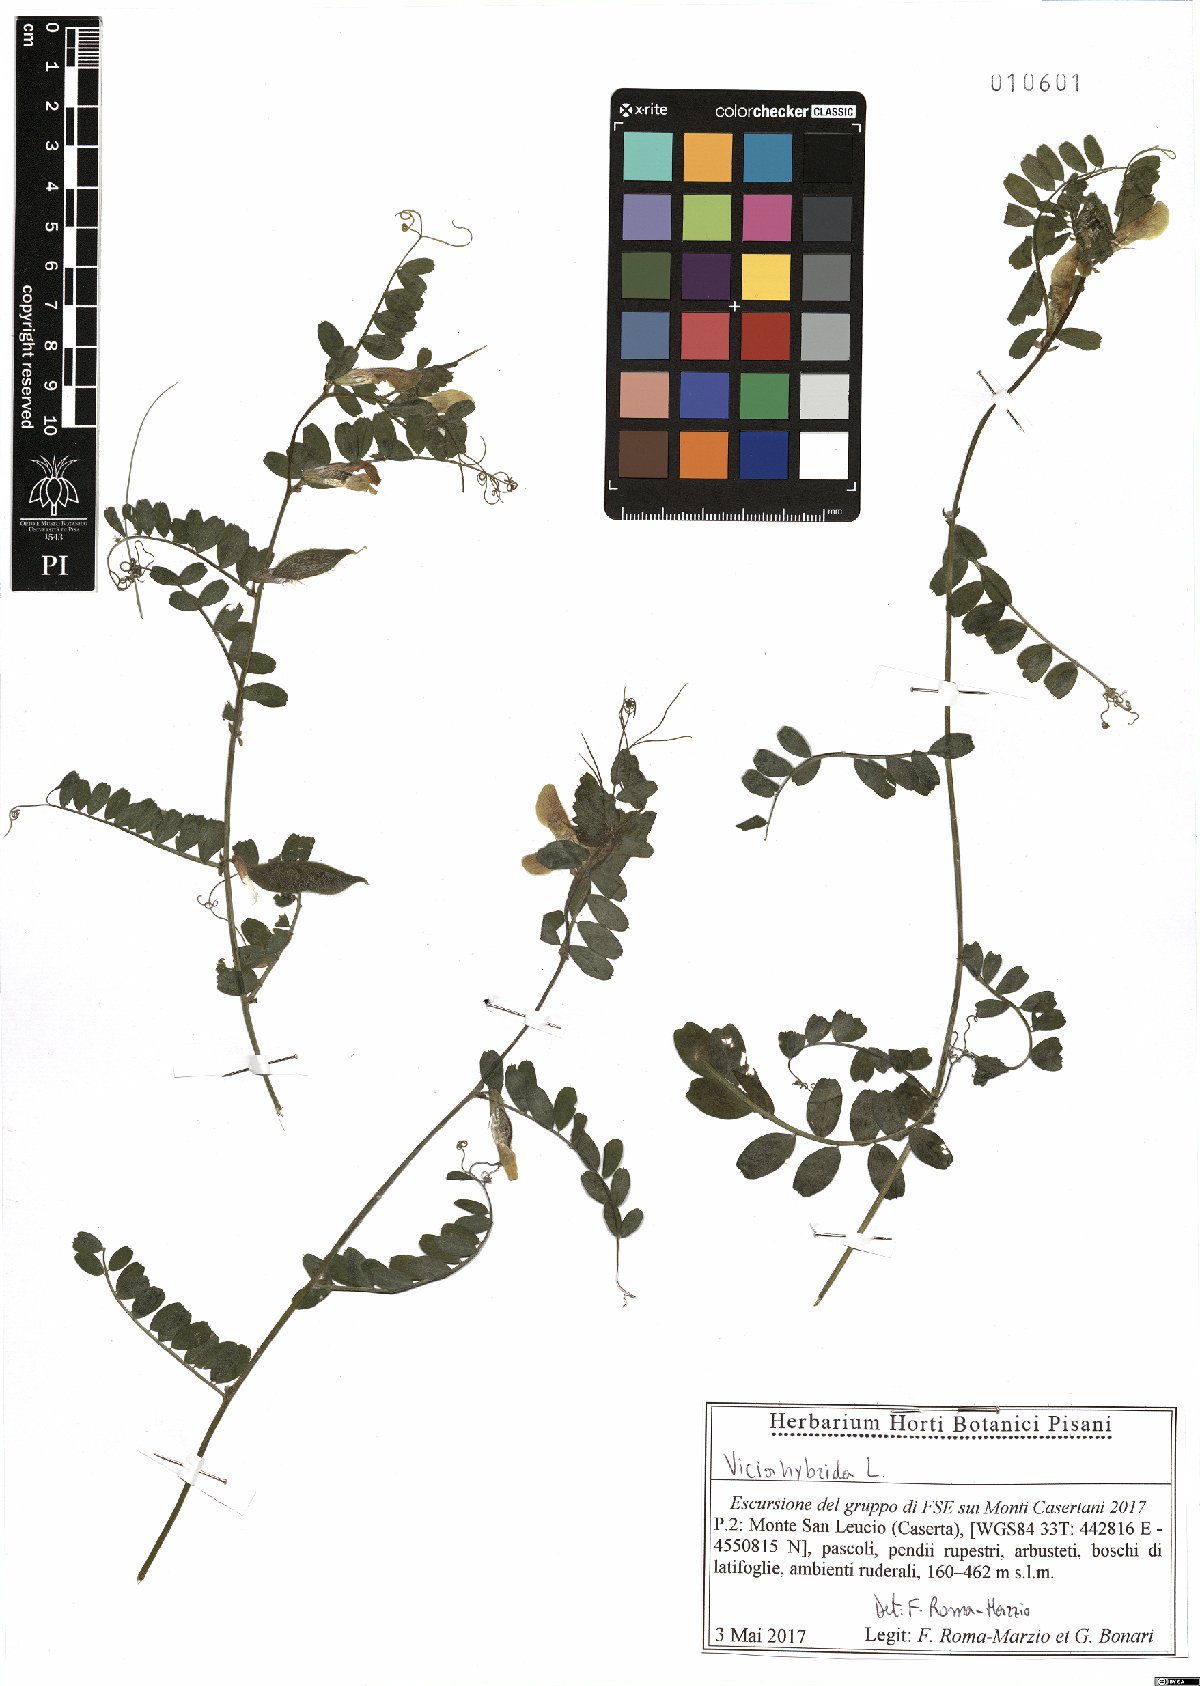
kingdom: Plantae
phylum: Tracheophyta
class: Magnoliopsida
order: Fabales
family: Fabaceae
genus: Vicia
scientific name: Vicia hybrida
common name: Hairy yellow vetch
